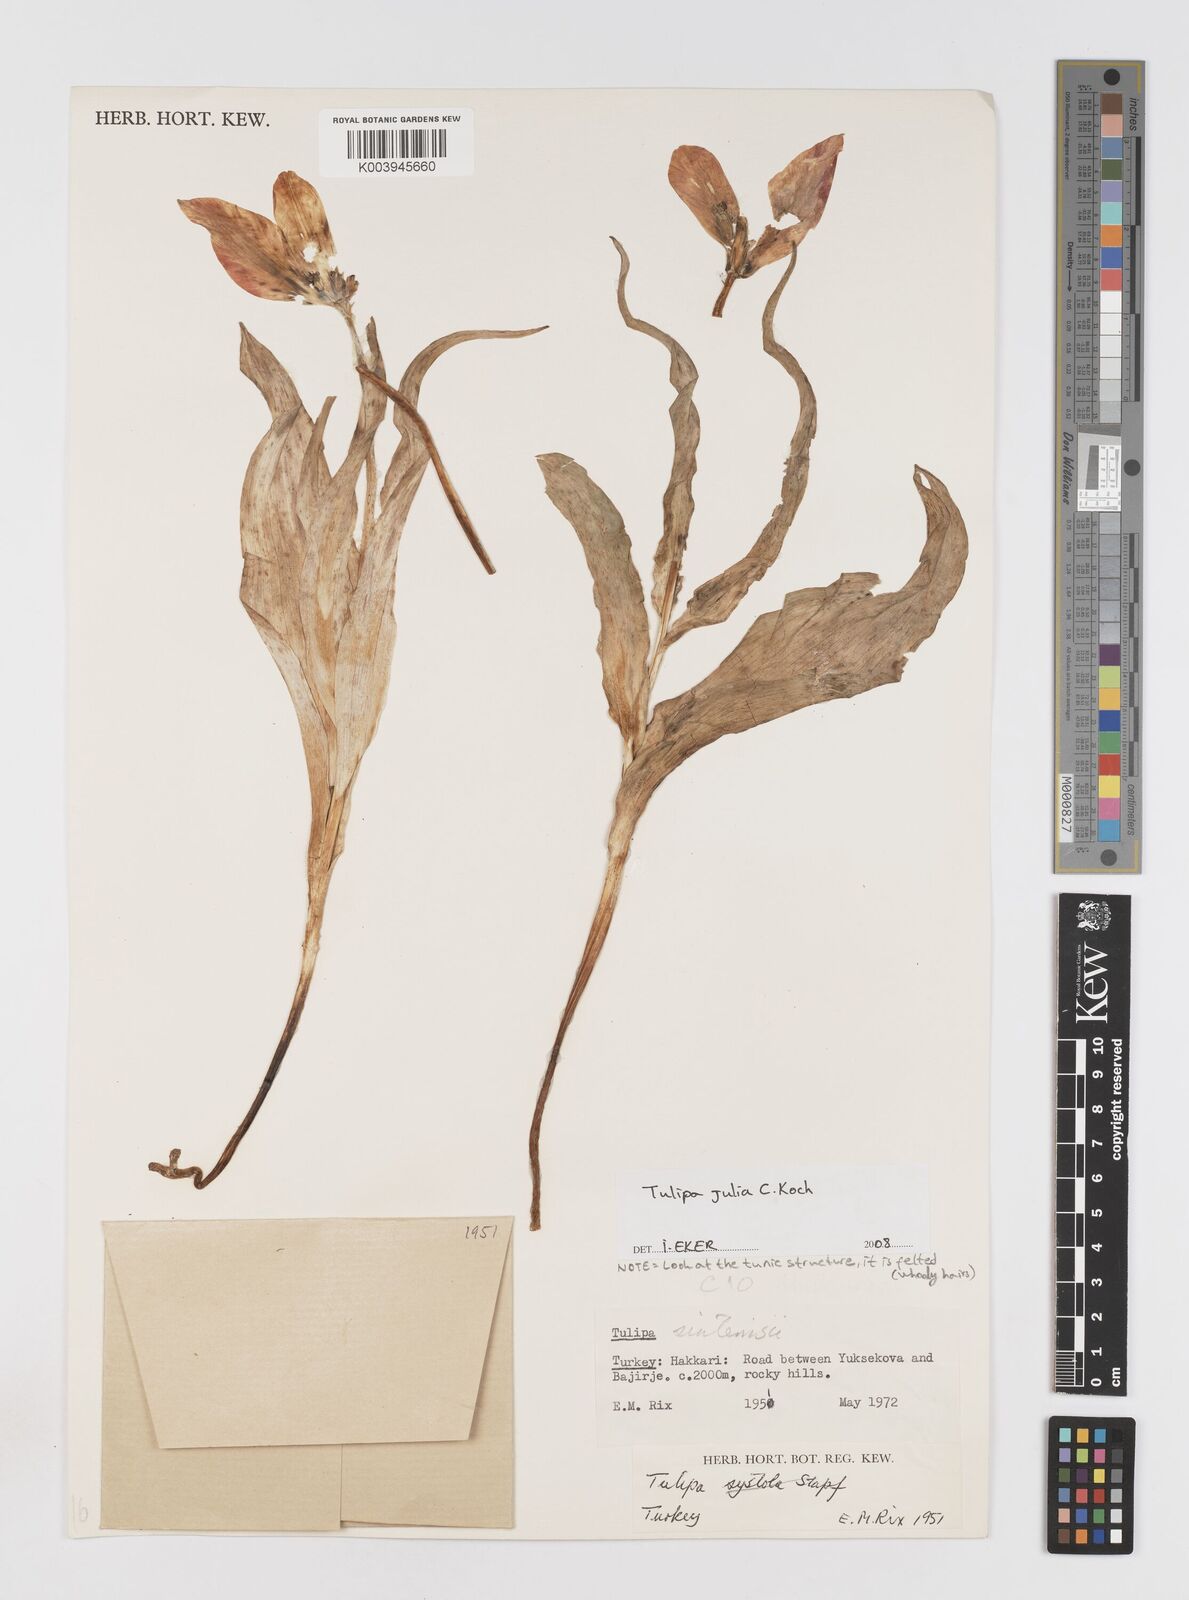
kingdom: Plantae
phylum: Tracheophyta
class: Liliopsida
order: Liliales
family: Liliaceae
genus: Tulipa
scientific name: Tulipa aleppensis
